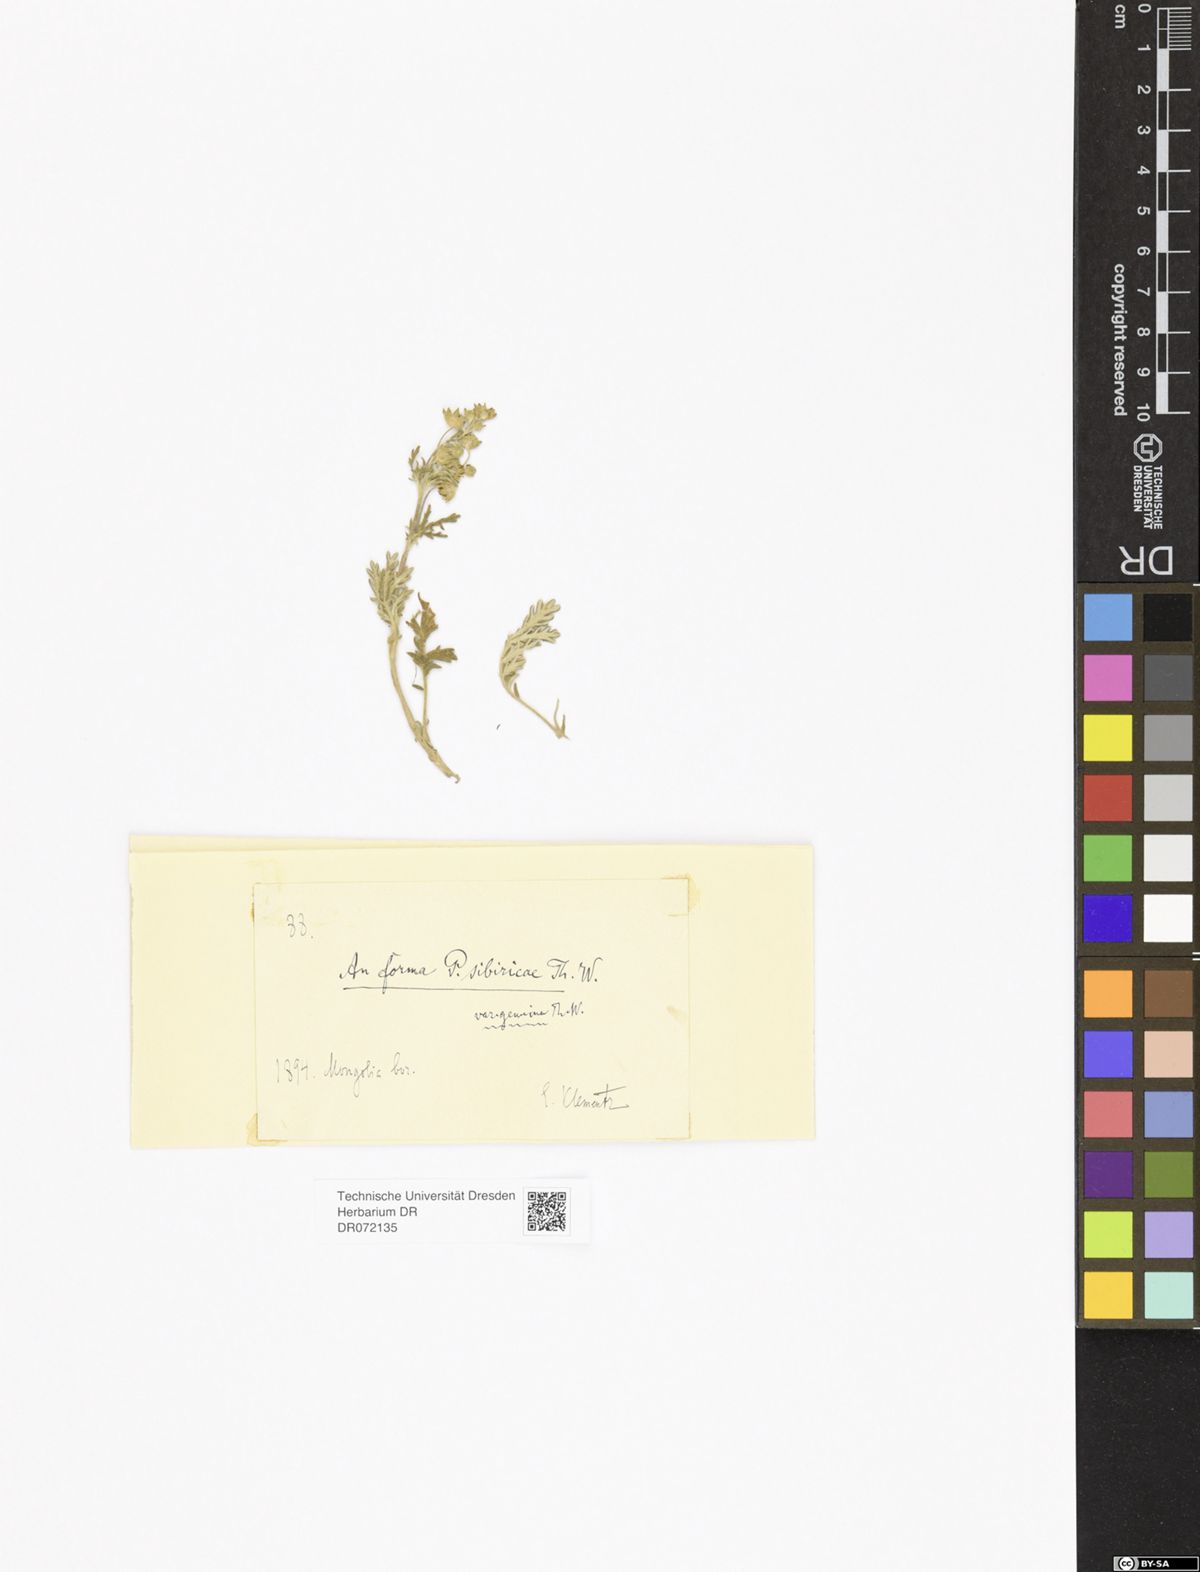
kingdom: Plantae
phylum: Tracheophyta
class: Magnoliopsida
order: Rosales
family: Rosaceae
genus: Potentilla
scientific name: Potentilla
